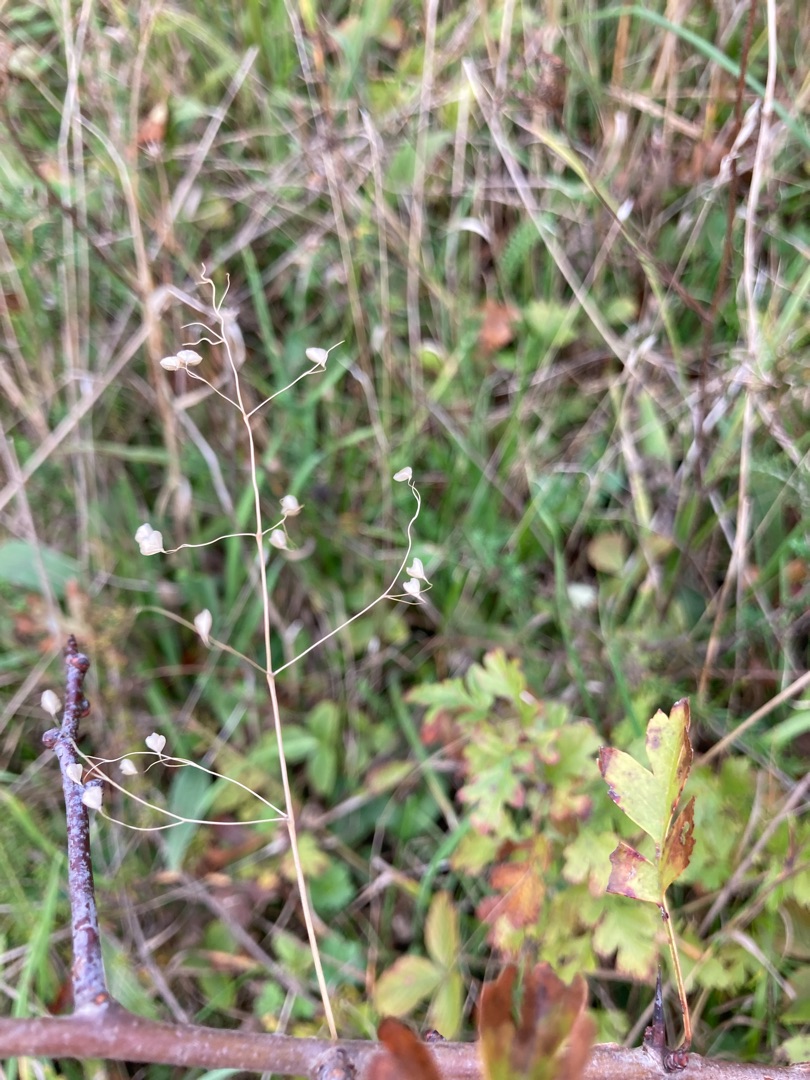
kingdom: Plantae
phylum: Tracheophyta
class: Liliopsida
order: Poales
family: Poaceae
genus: Briza
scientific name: Briza media
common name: Hjertegræs
